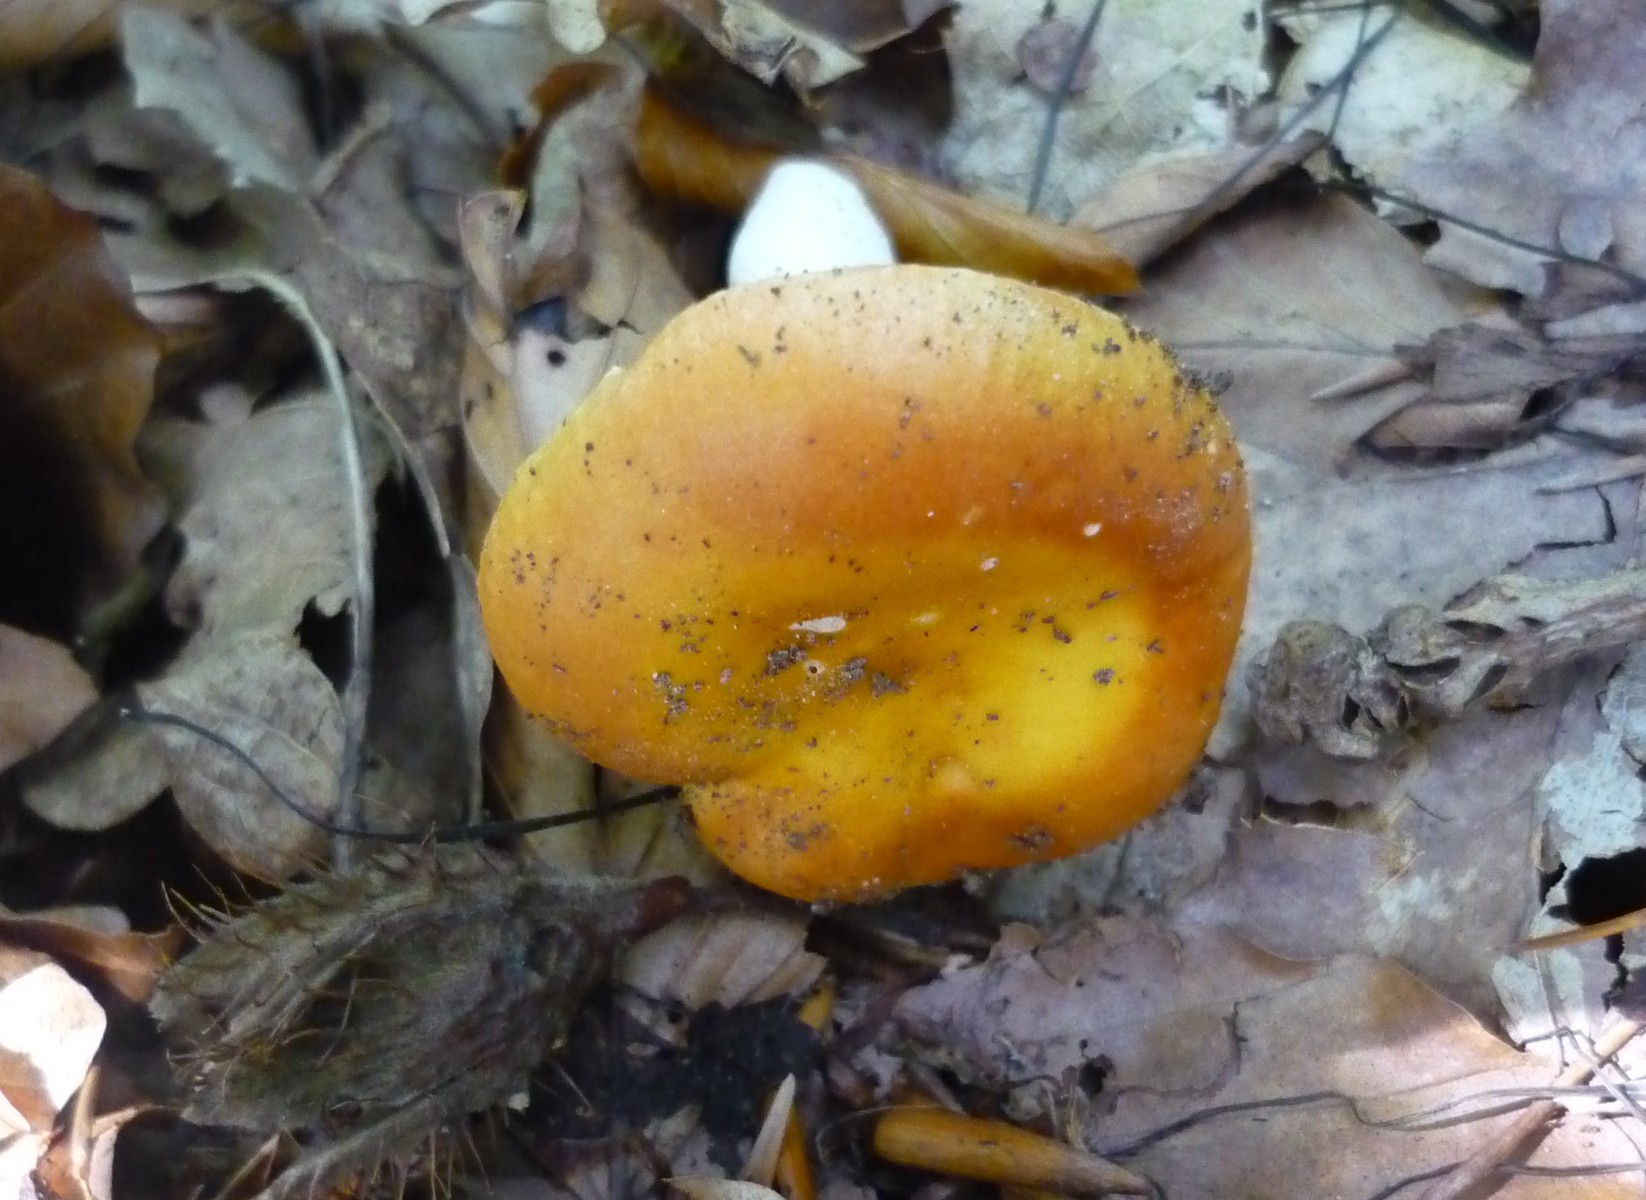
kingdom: Fungi
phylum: Basidiomycota
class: Agaricomycetes
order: Russulales
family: Russulaceae
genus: Russula
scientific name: Russula risigallina
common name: abrikos-skørhat
